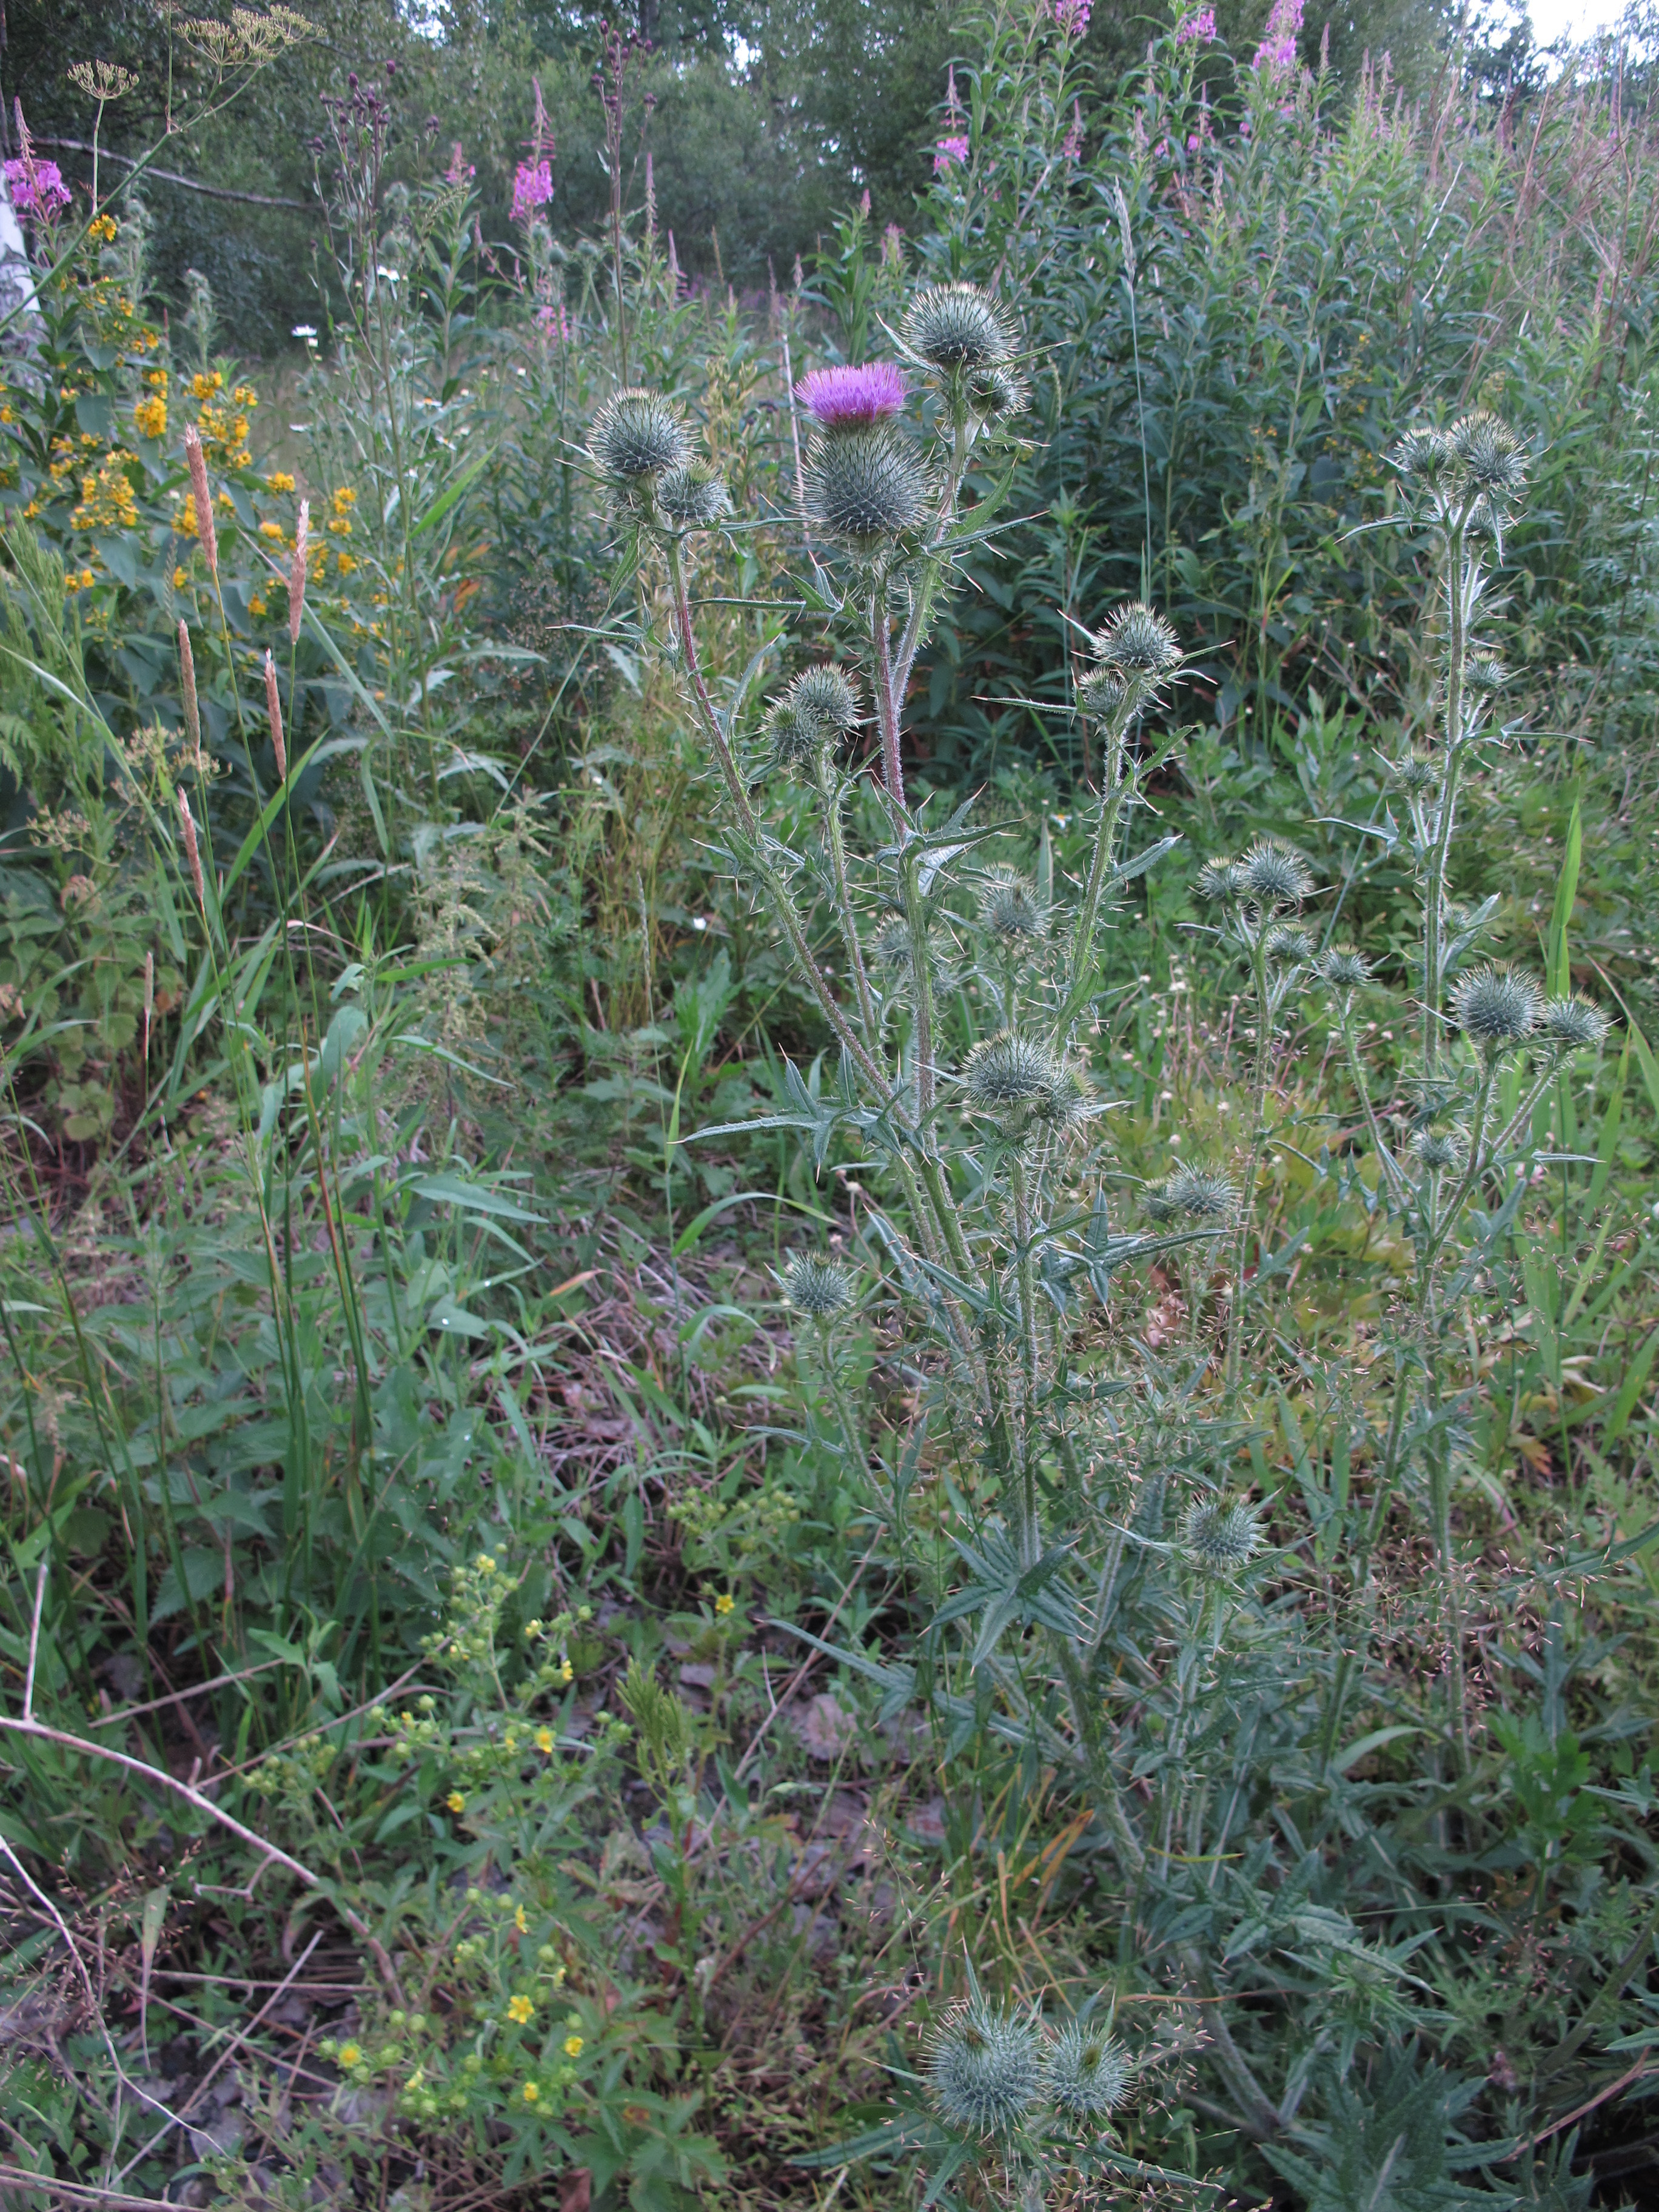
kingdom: Plantae
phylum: Tracheophyta
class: Magnoliopsida
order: Asterales
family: Asteraceae
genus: Cirsium
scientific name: Cirsium vulgare
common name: Bull thistle
